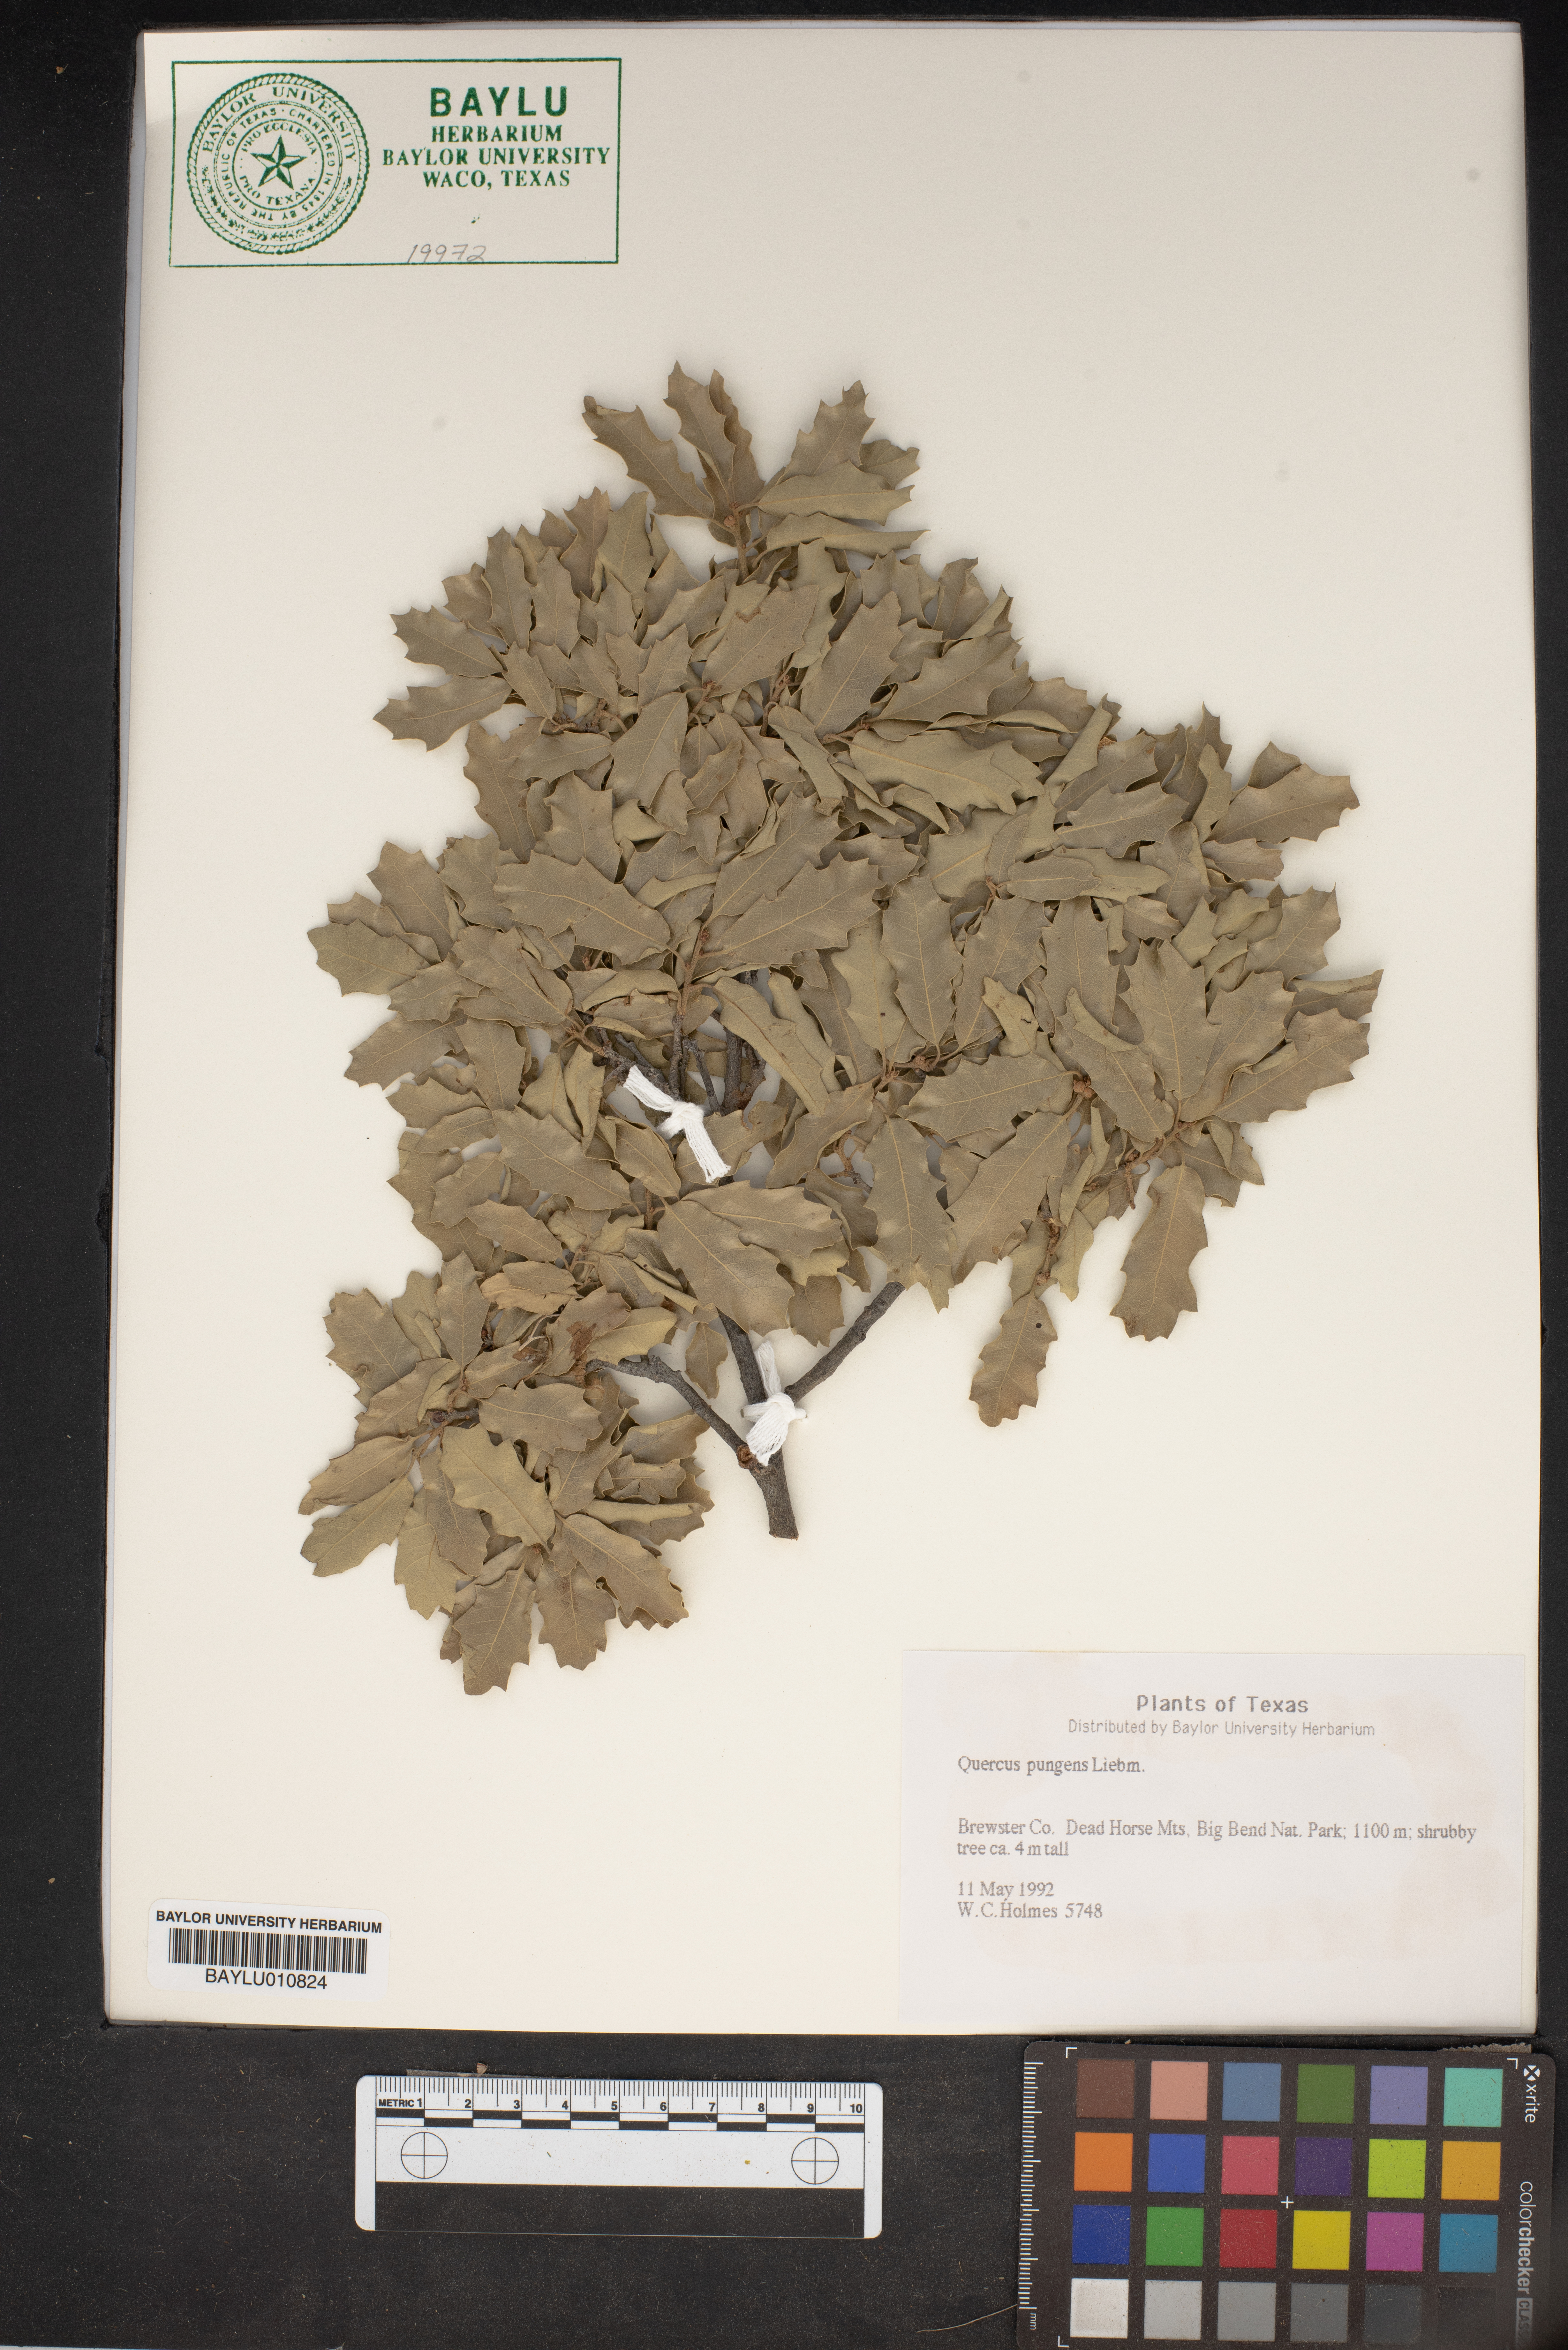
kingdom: Plantae
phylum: Tracheophyta
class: Magnoliopsida
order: Fagales
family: Fagaceae
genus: Quercus
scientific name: Quercus pungens
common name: Pungent oak
